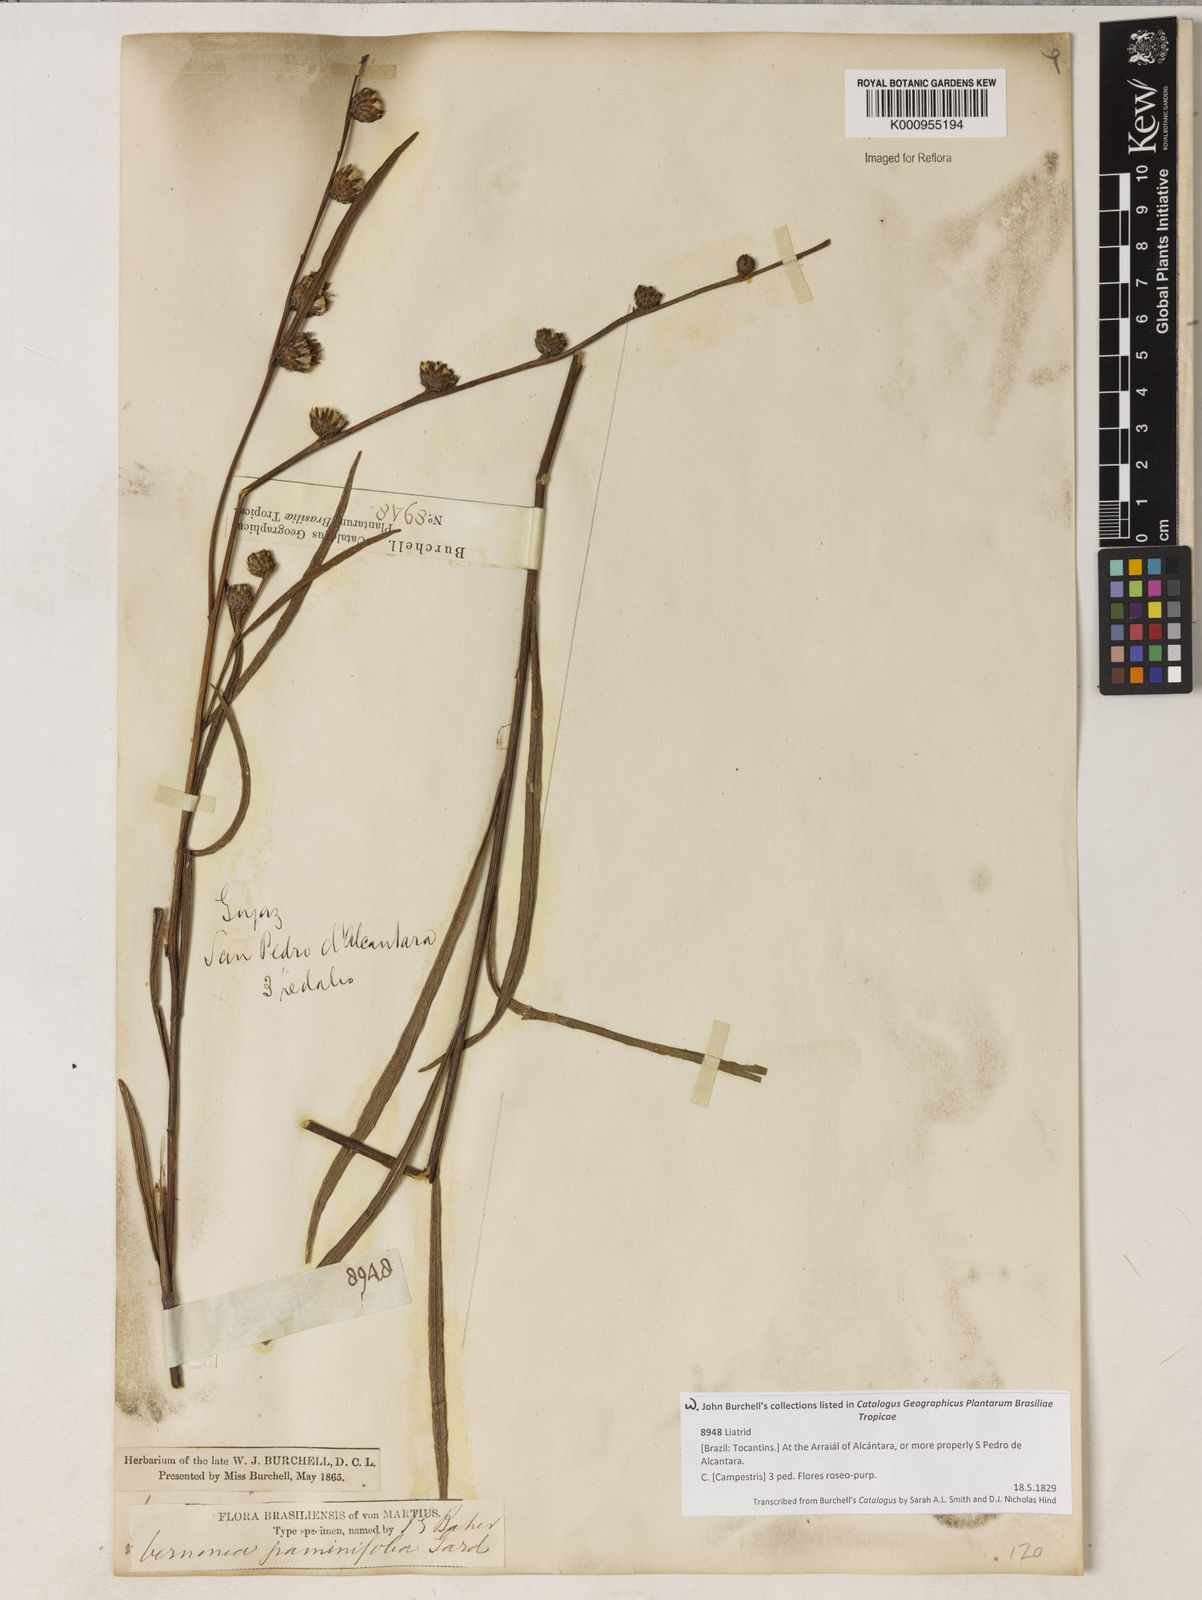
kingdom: Plantae
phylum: Tracheophyta
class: Magnoliopsida
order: Asterales
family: Asteraceae
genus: Lessingianthus
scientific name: Lessingianthus graminifolius
